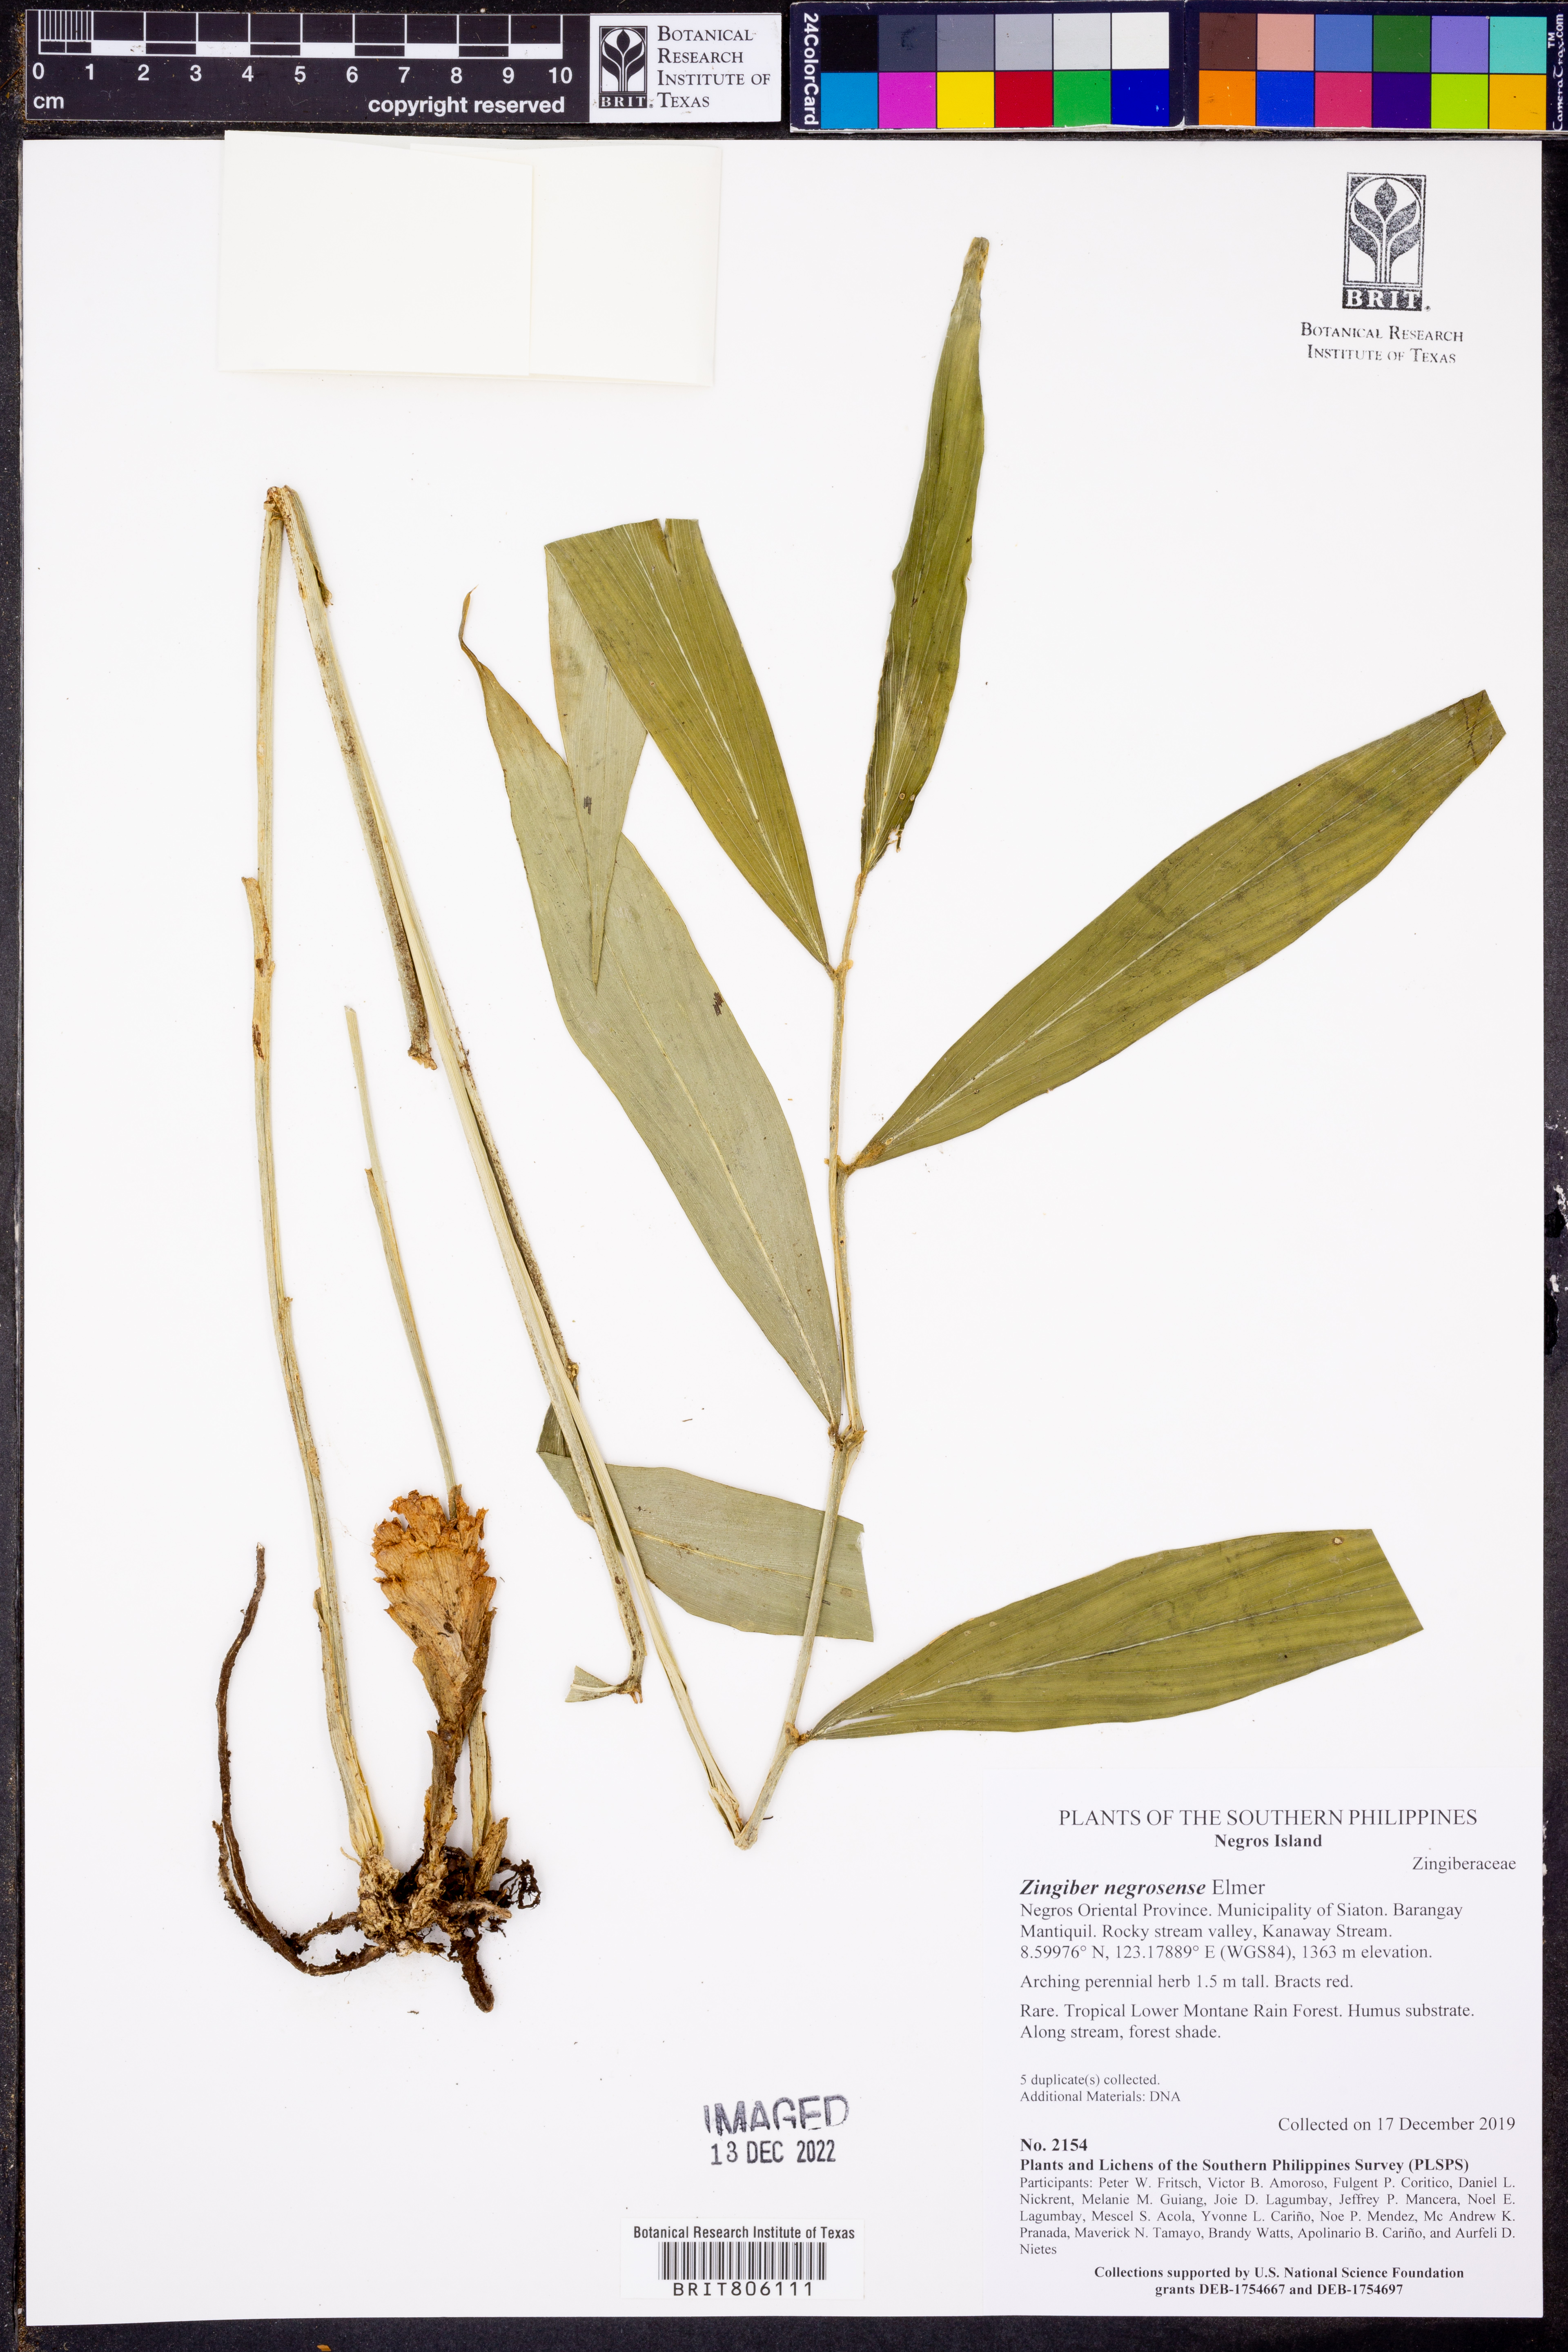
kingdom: Plantae
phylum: Tracheophyta
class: Liliopsida
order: Zingiberales
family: Zingiberaceae
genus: Zingiber
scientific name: Zingiber negrosense
